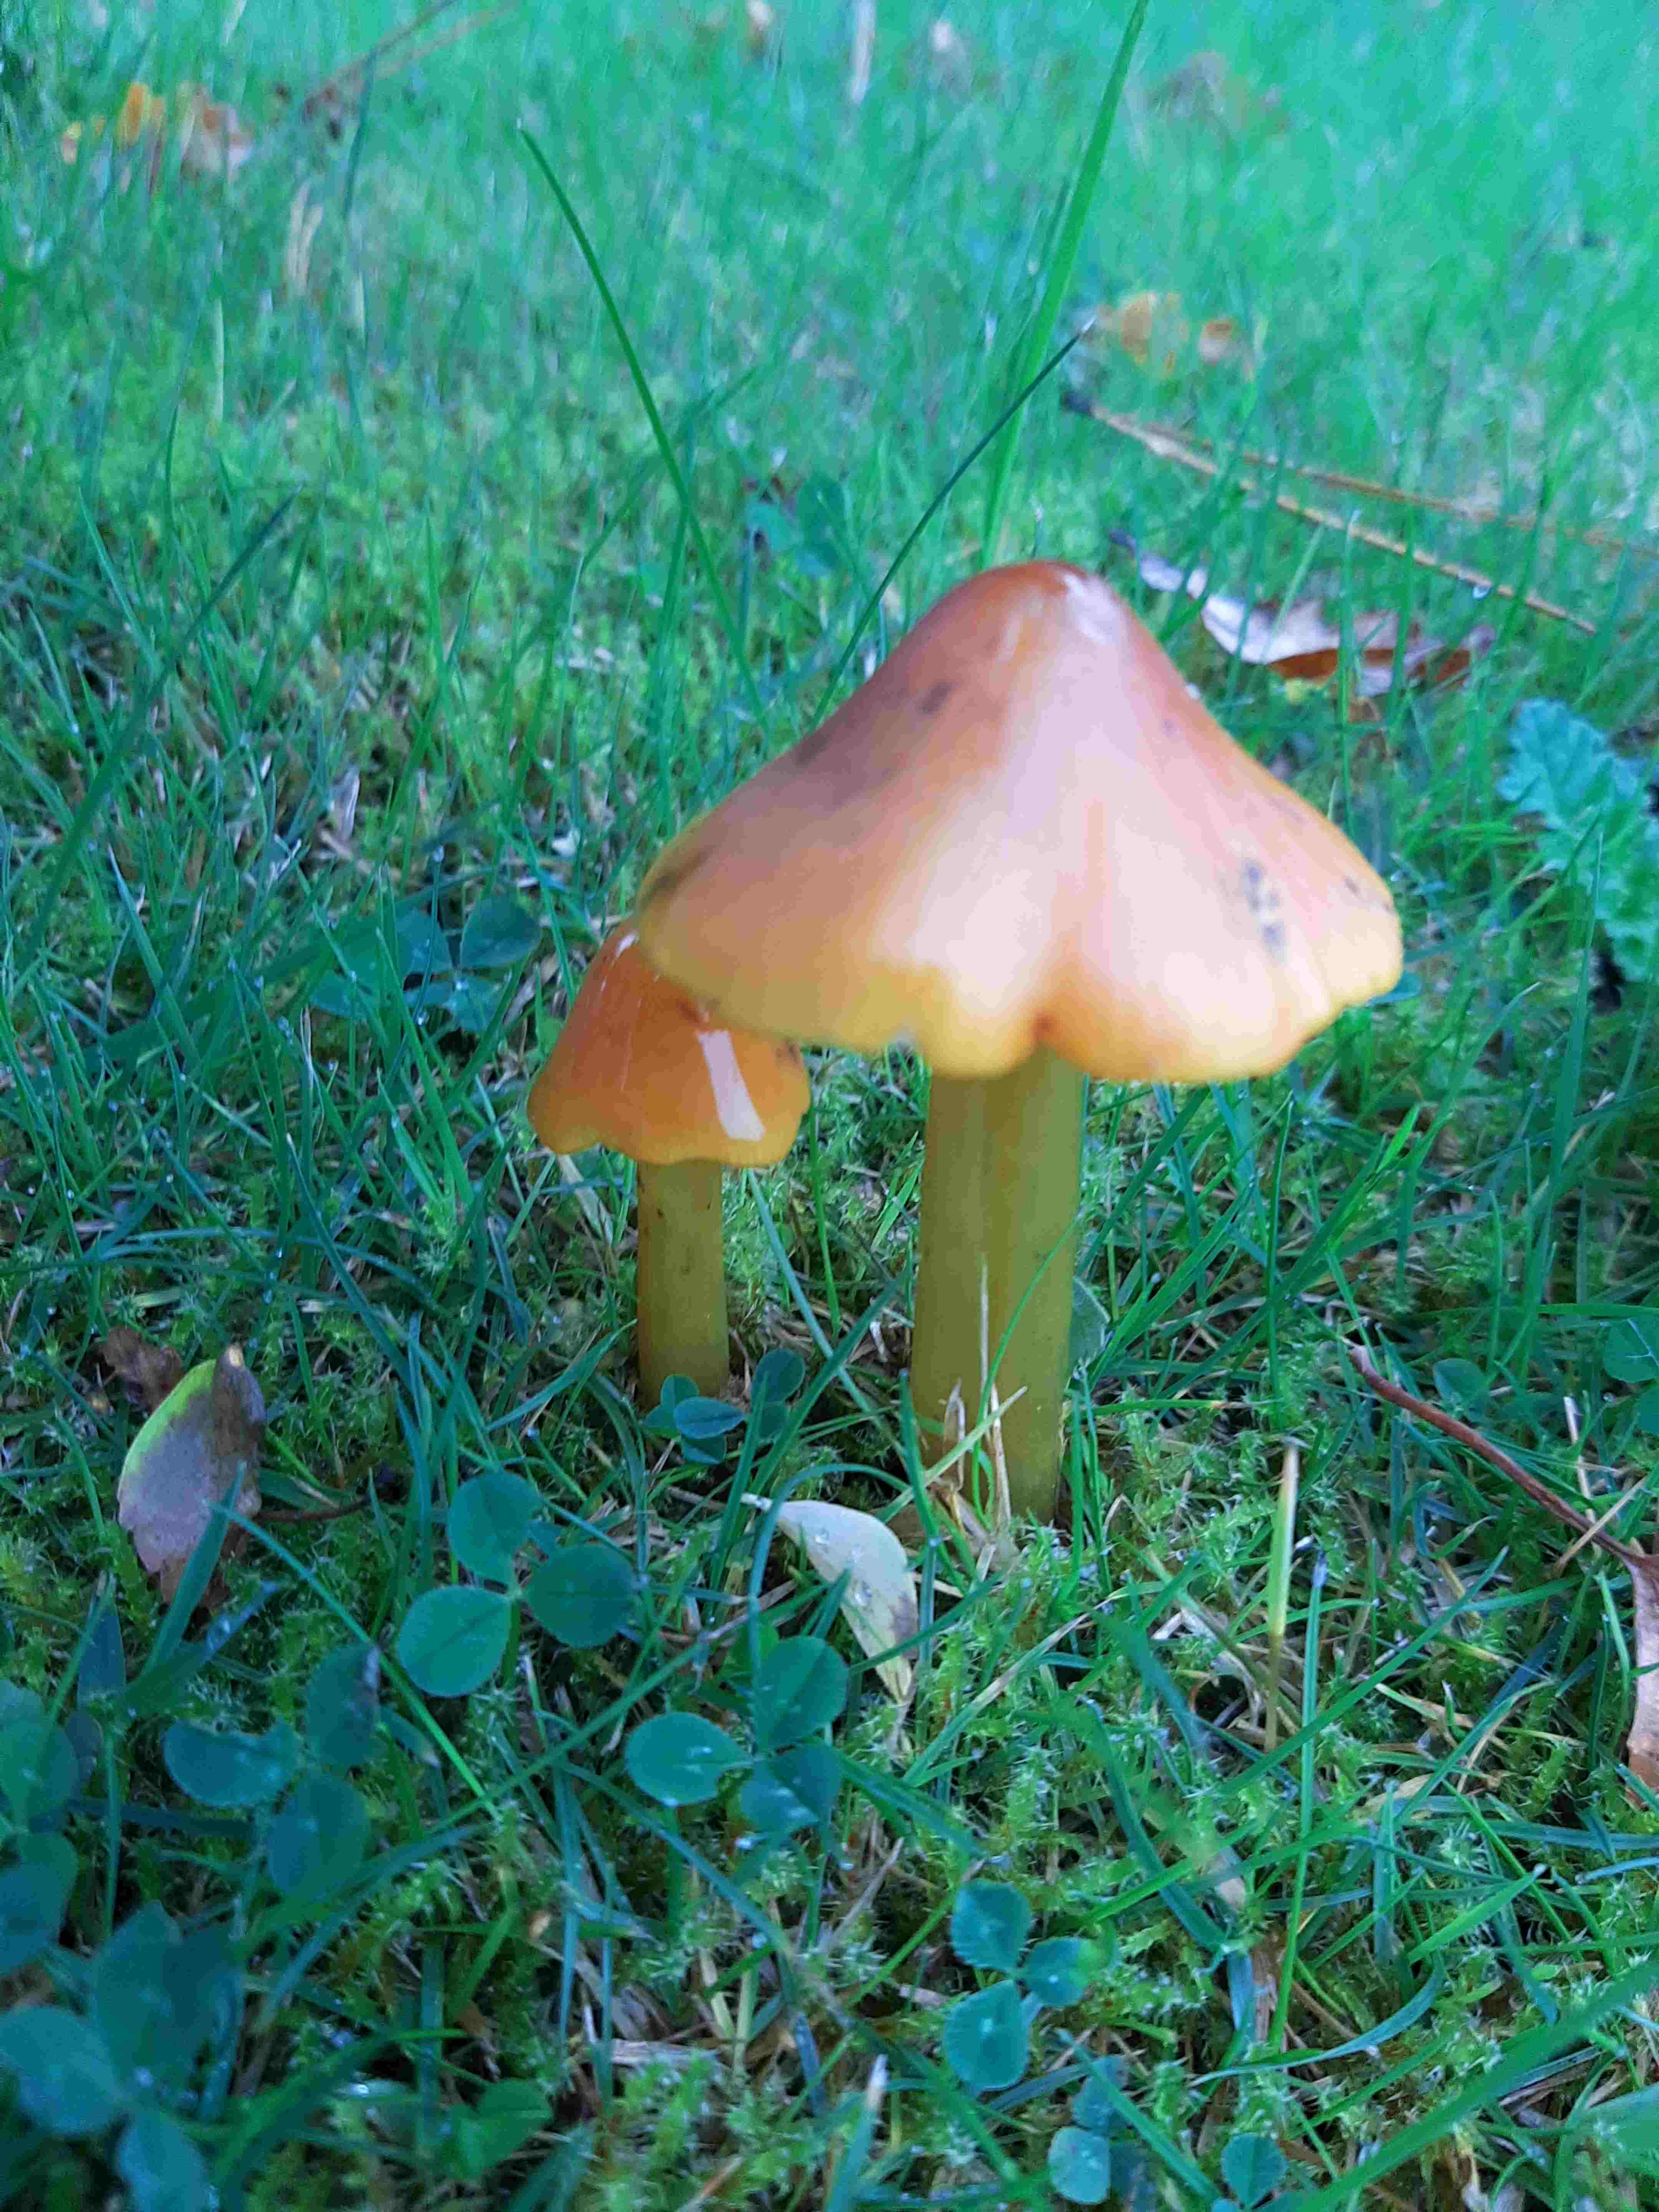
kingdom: Fungi
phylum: Basidiomycota
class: Agaricomycetes
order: Agaricales
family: Hygrophoraceae
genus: Hygrocybe
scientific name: Hygrocybe conica
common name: kegle-vokshat
